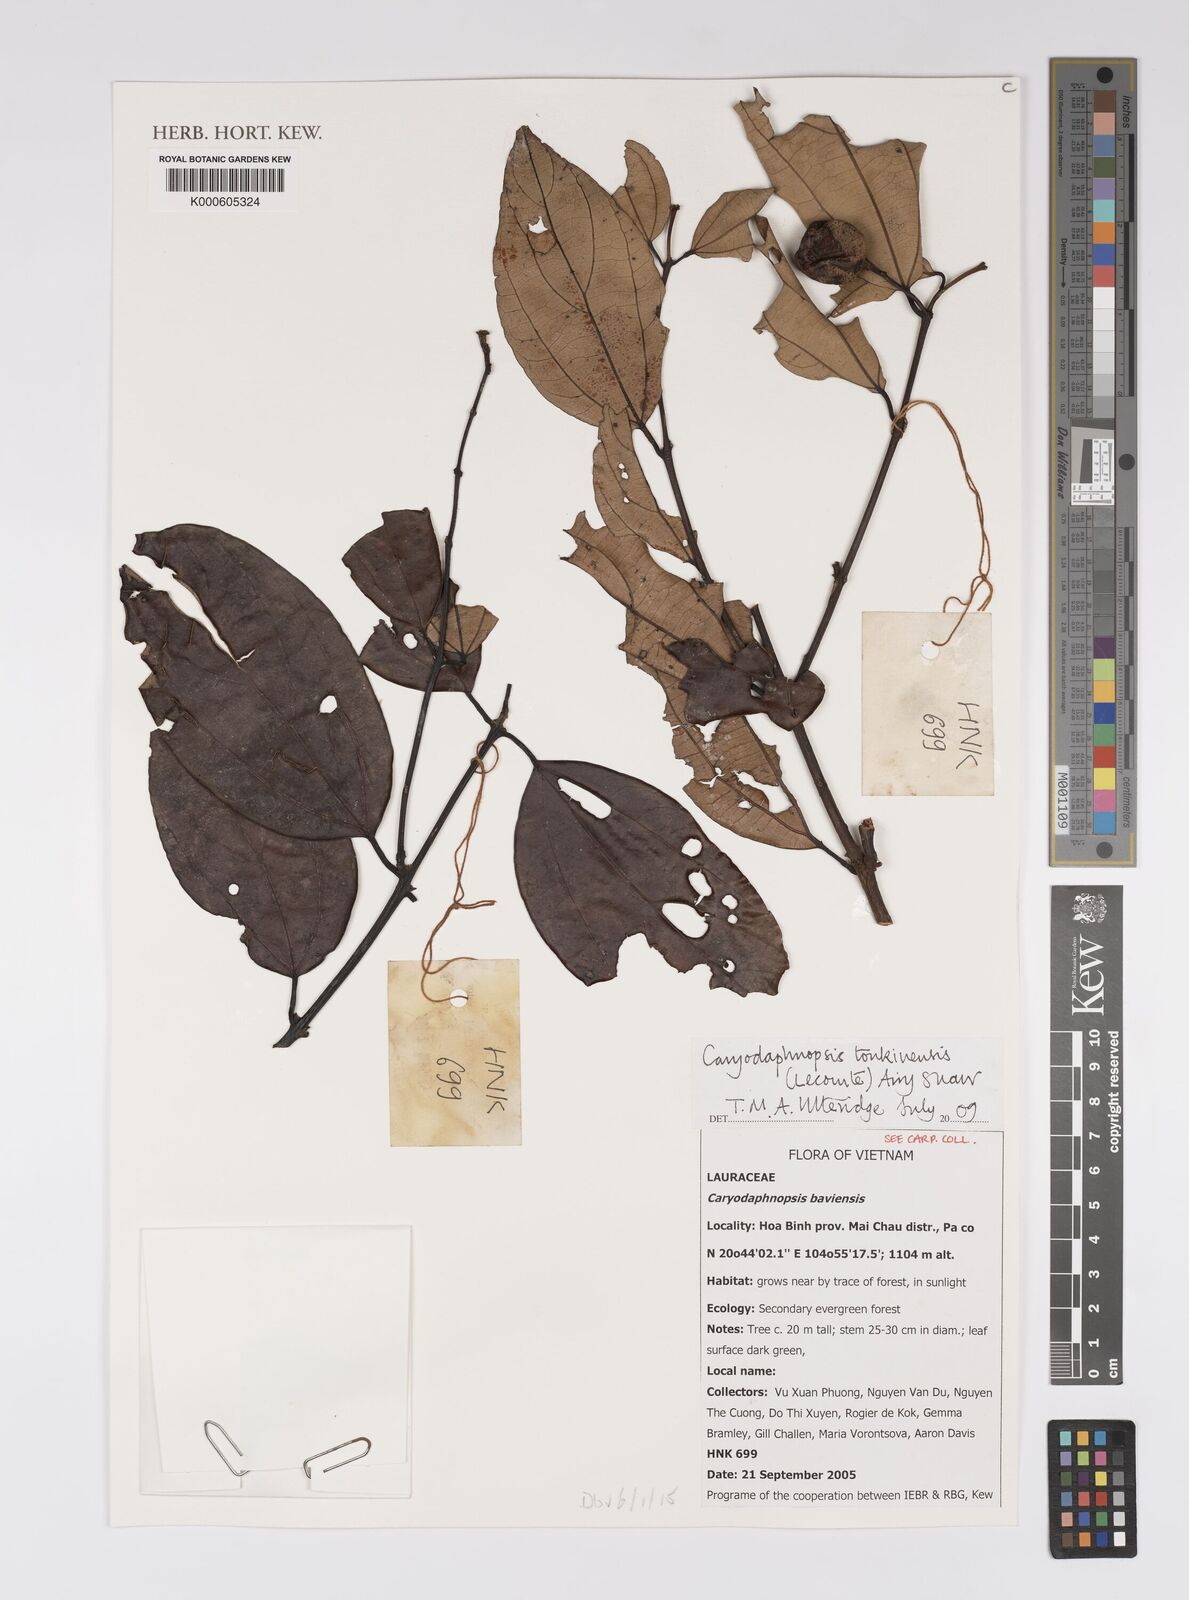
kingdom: Plantae
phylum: Tracheophyta
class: Magnoliopsida
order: Laurales
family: Lauraceae
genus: Caryodaphnopsis
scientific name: Caryodaphnopsis tonkinensis
